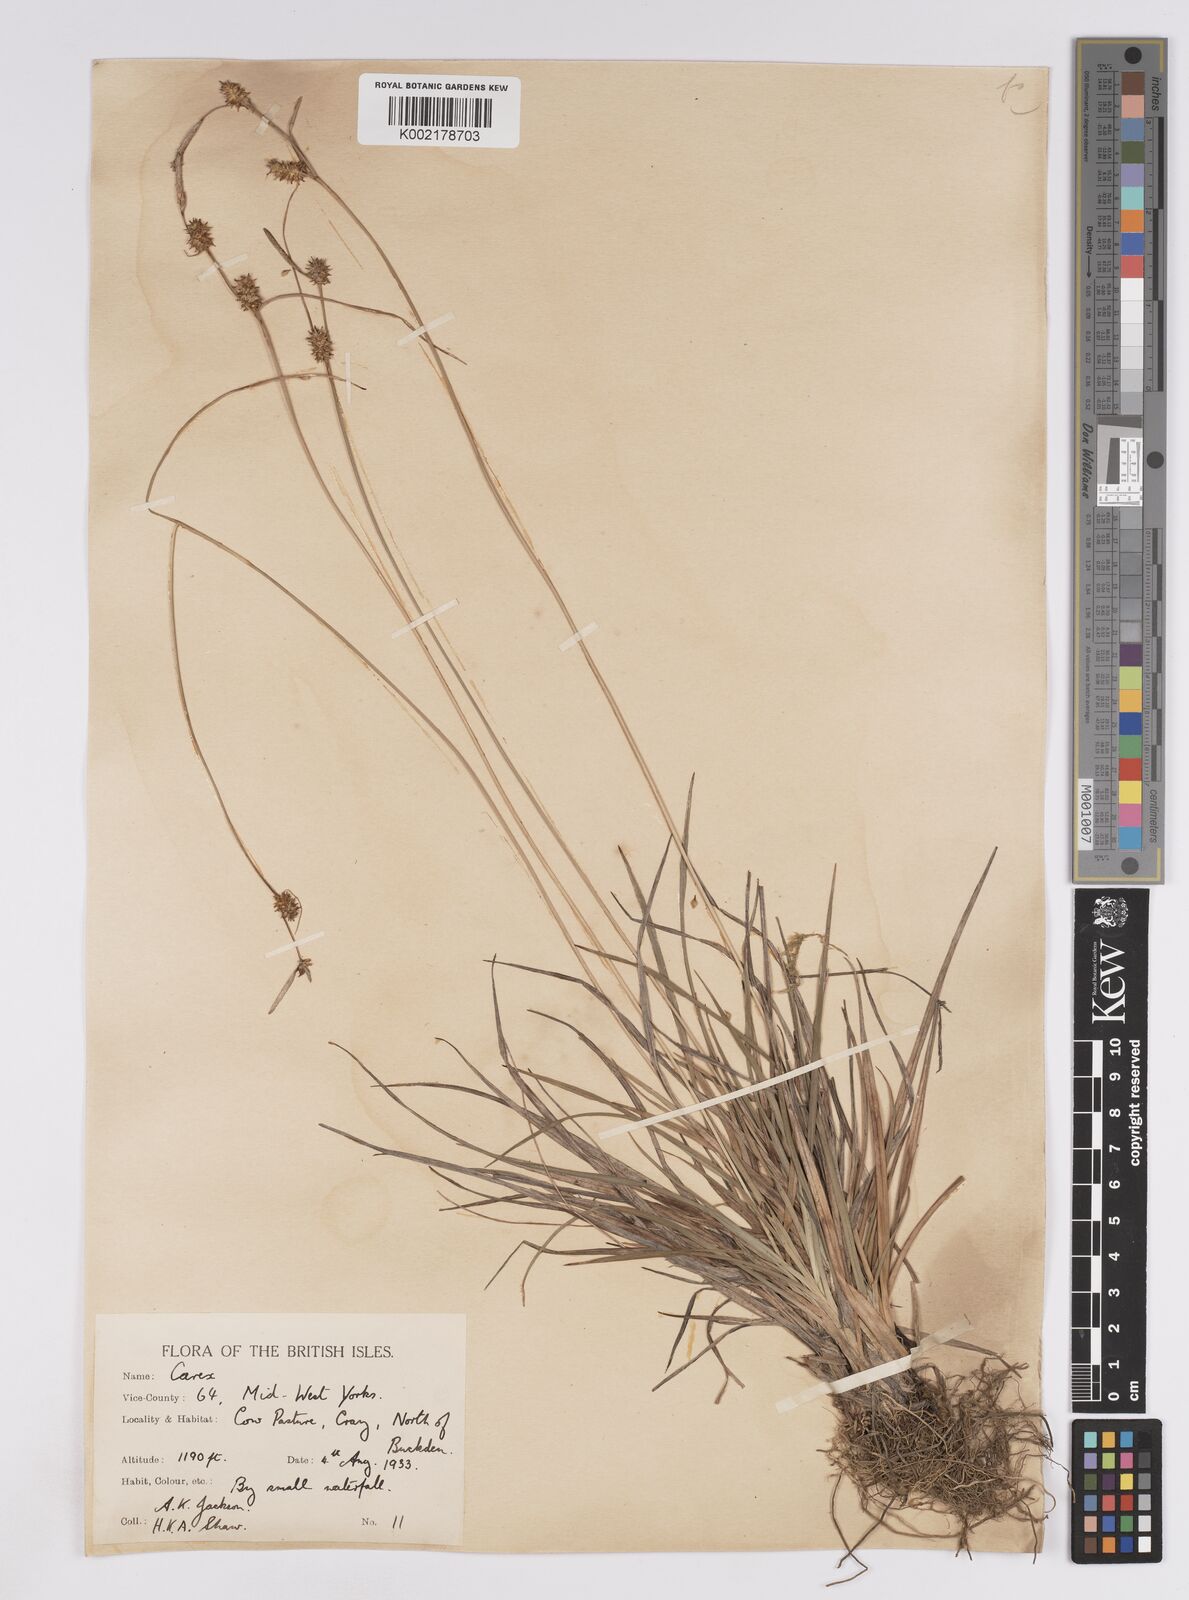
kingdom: Plantae
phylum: Tracheophyta
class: Liliopsida
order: Poales
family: Cyperaceae
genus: Carex
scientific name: Carex lepidocarpa
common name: Long-stalked yellow-sedge
